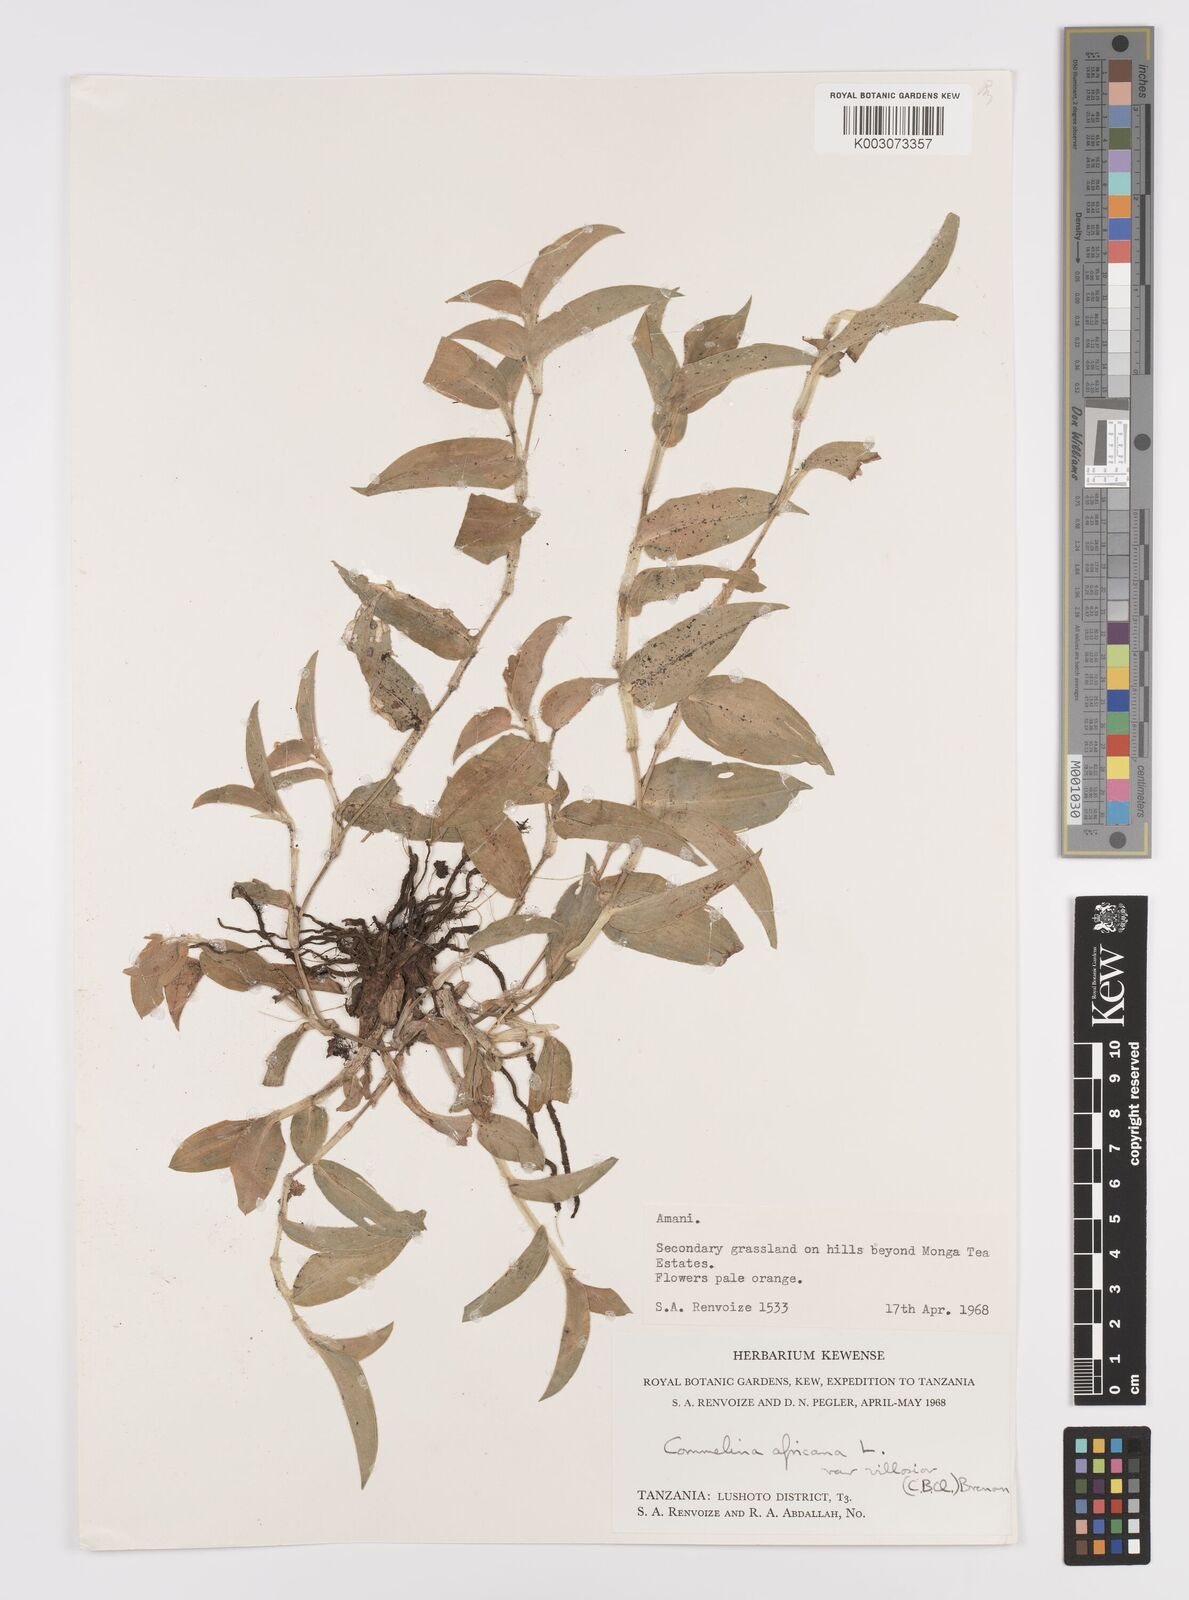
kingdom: Plantae
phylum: Tracheophyta
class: Liliopsida
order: Commelinales
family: Commelinaceae
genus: Commelina
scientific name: Commelina africana
